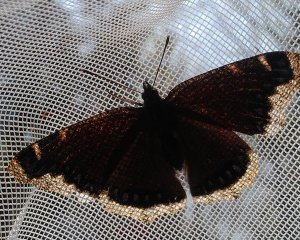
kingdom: Animalia
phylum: Arthropoda
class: Insecta
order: Lepidoptera
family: Nymphalidae
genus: Nymphalis
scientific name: Nymphalis antiopa
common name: Mourning Cloak
